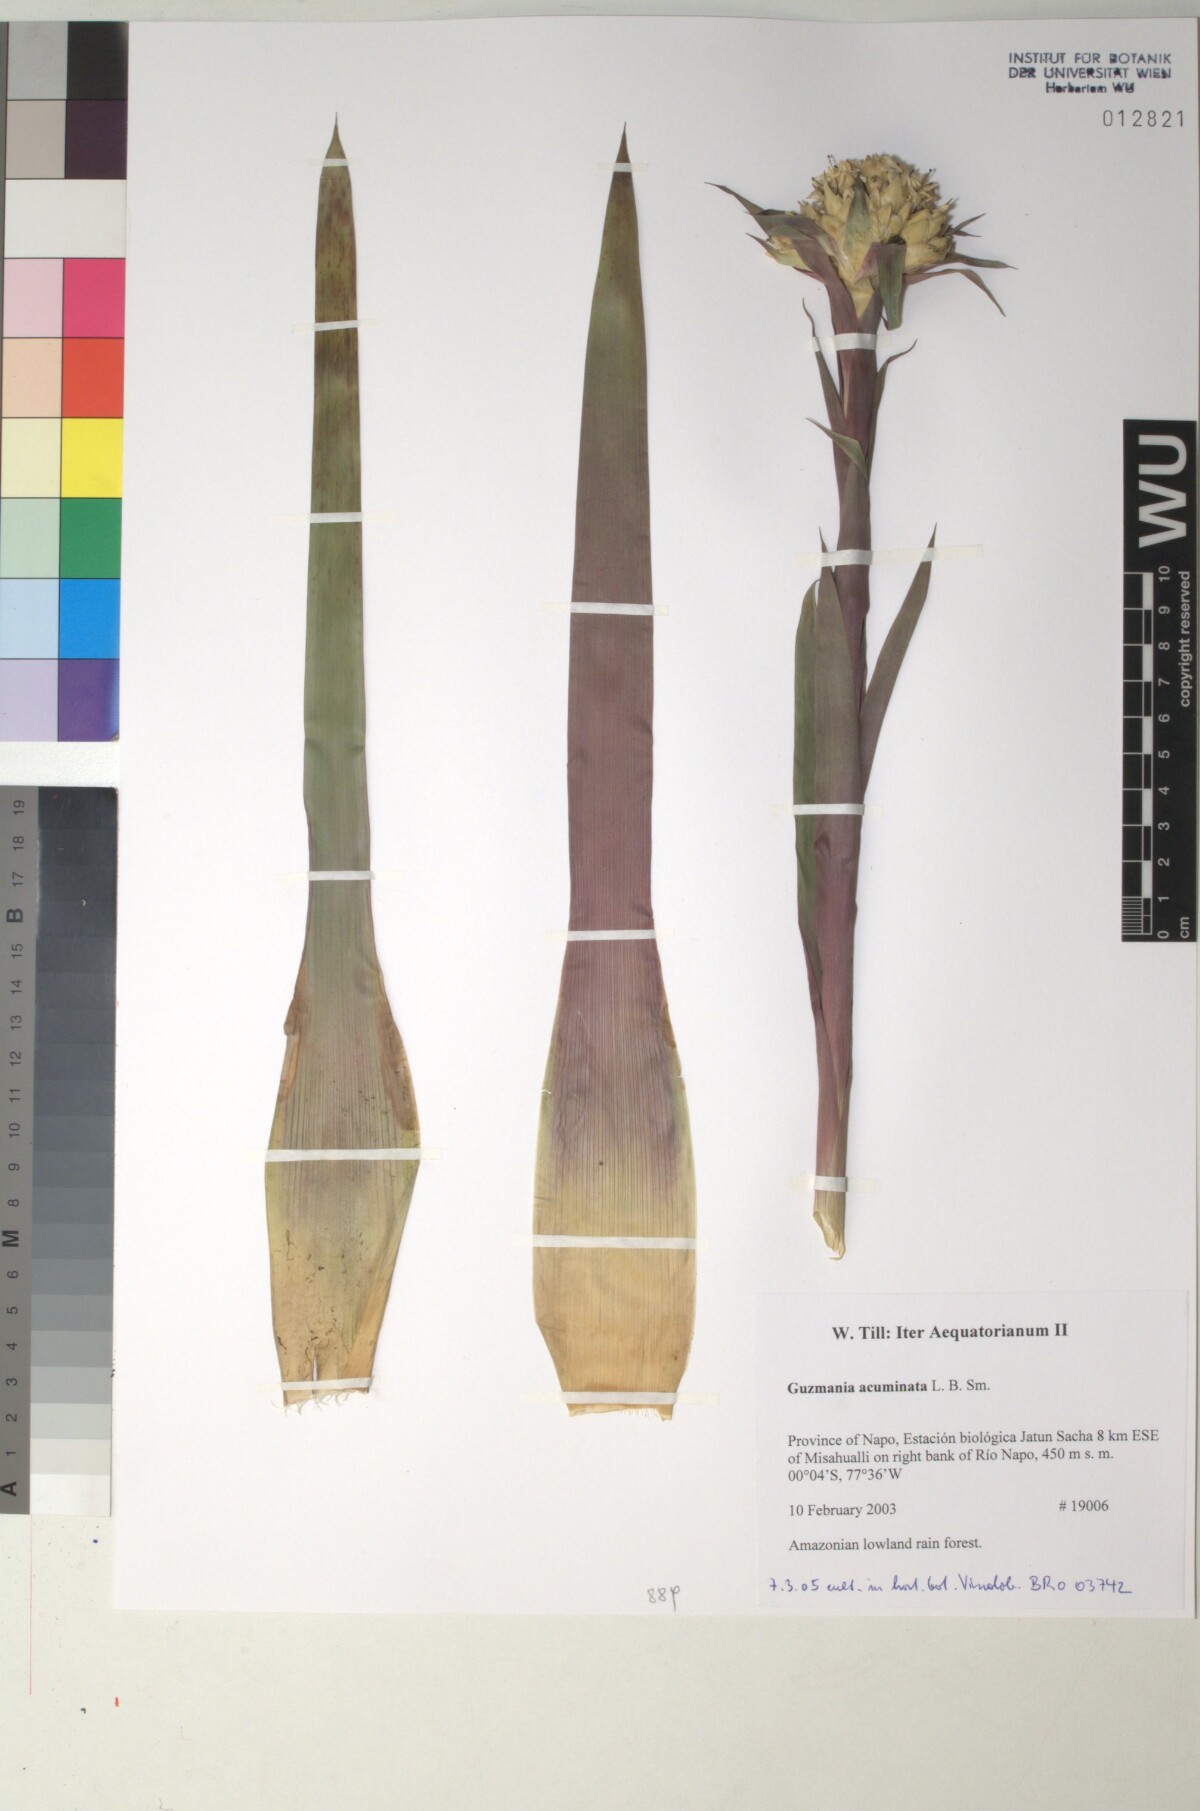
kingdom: Plantae
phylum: Tracheophyta
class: Liliopsida
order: Poales
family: Bromeliaceae
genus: Guzmania
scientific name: Guzmania acuminata
